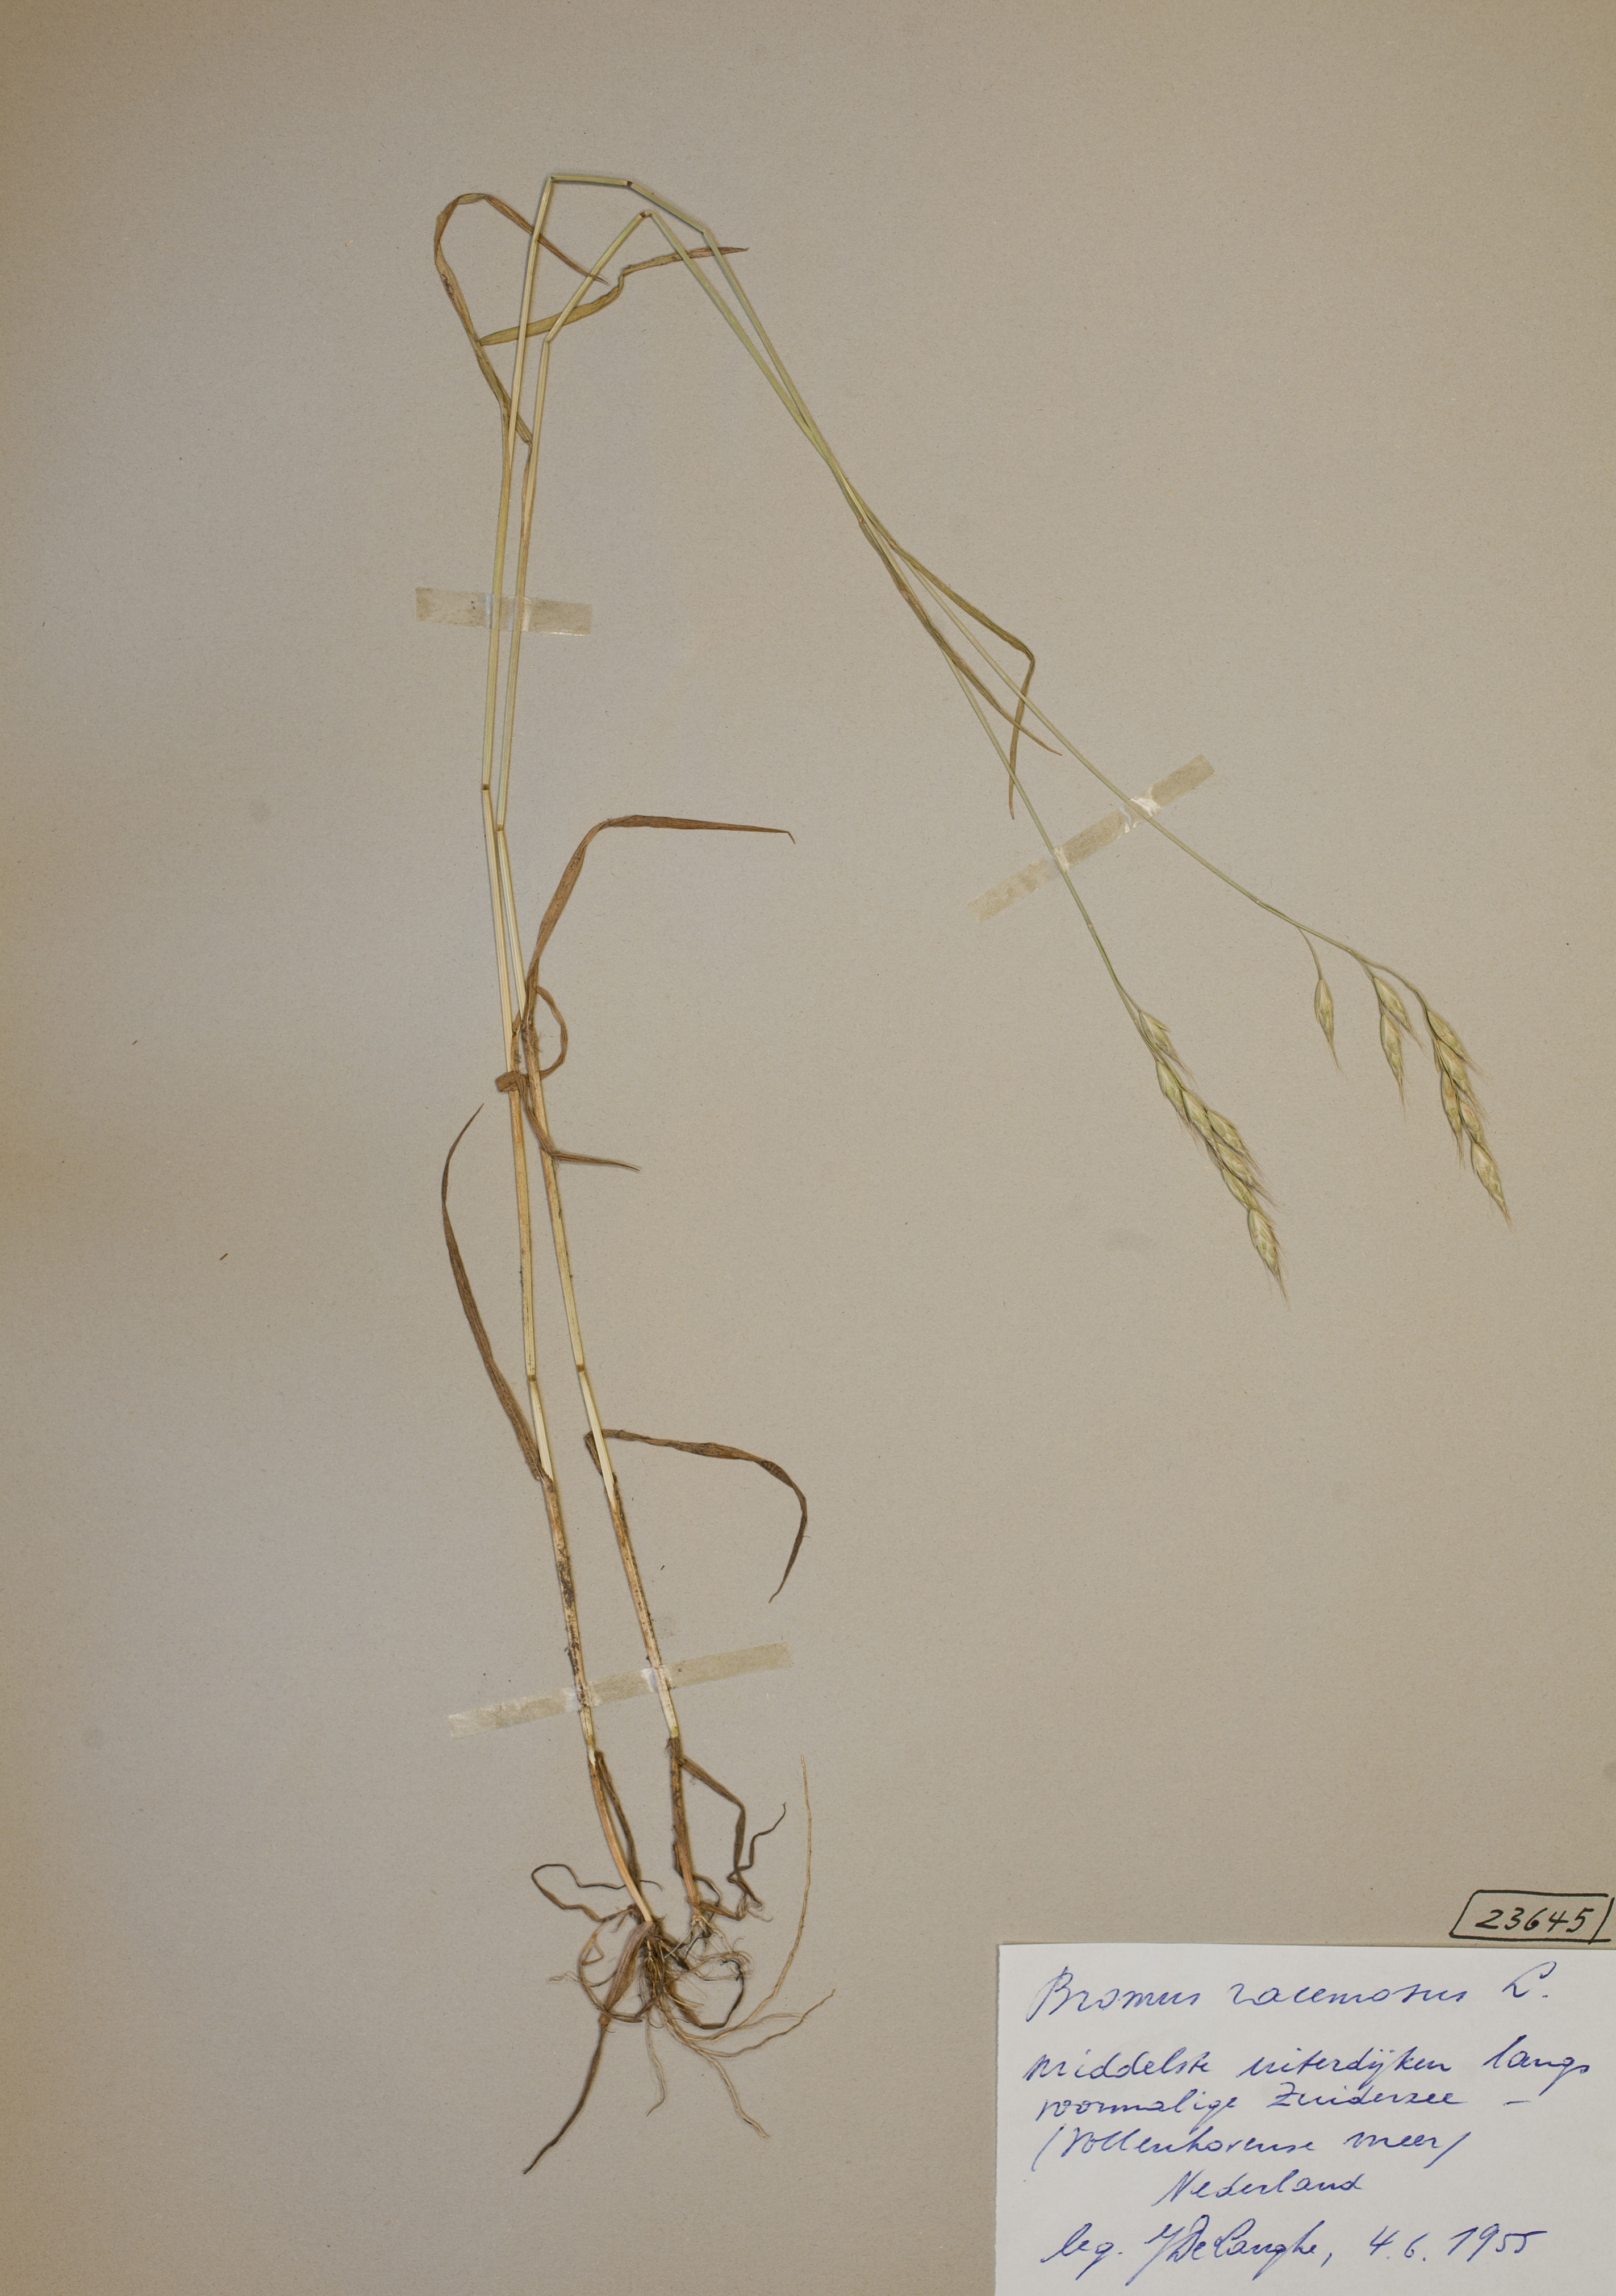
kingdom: Plantae
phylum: Tracheophyta
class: Liliopsida
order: Poales
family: Poaceae
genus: Bromus
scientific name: Bromus racemosus
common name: Bald brome
